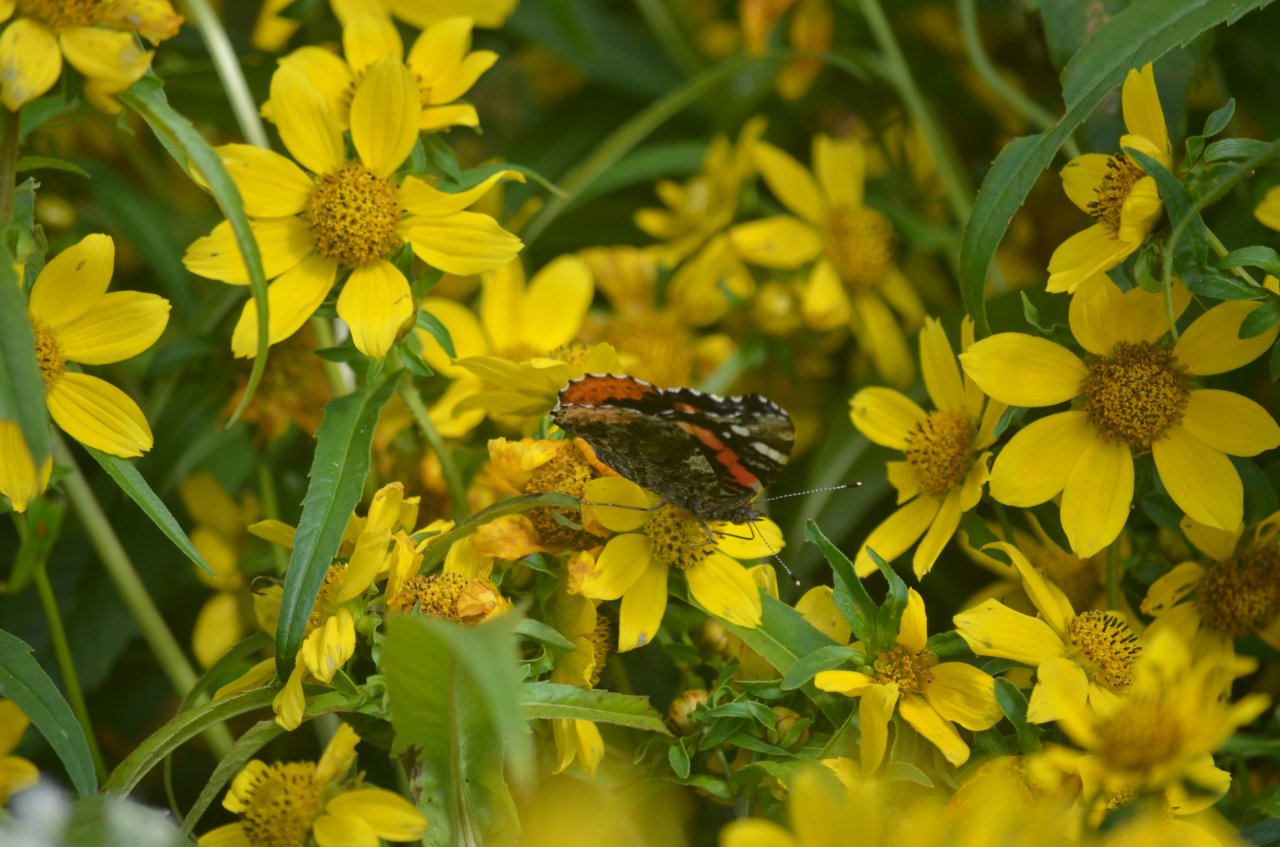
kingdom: Animalia
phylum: Arthropoda
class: Insecta
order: Lepidoptera
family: Nymphalidae
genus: Vanessa
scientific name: Vanessa atalanta
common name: Red Admiral
